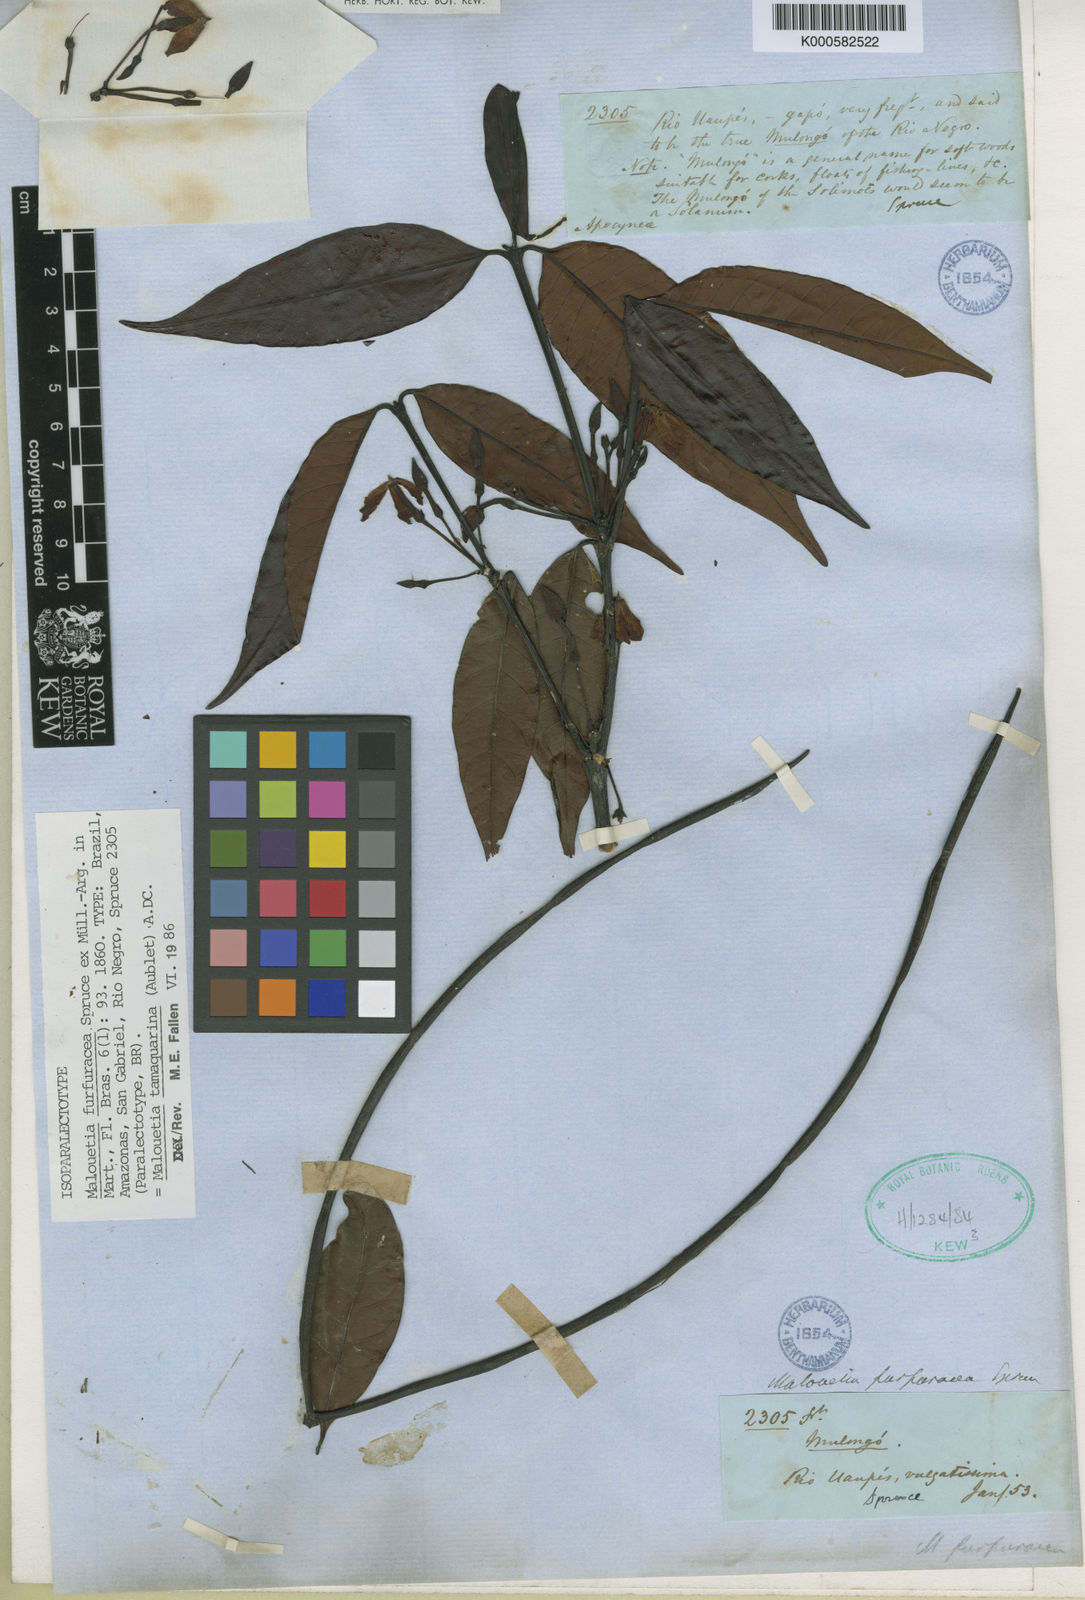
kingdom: Plantae
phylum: Tracheophyta
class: Magnoliopsida
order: Gentianales
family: Apocynaceae
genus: Malouetia
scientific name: Malouetia
